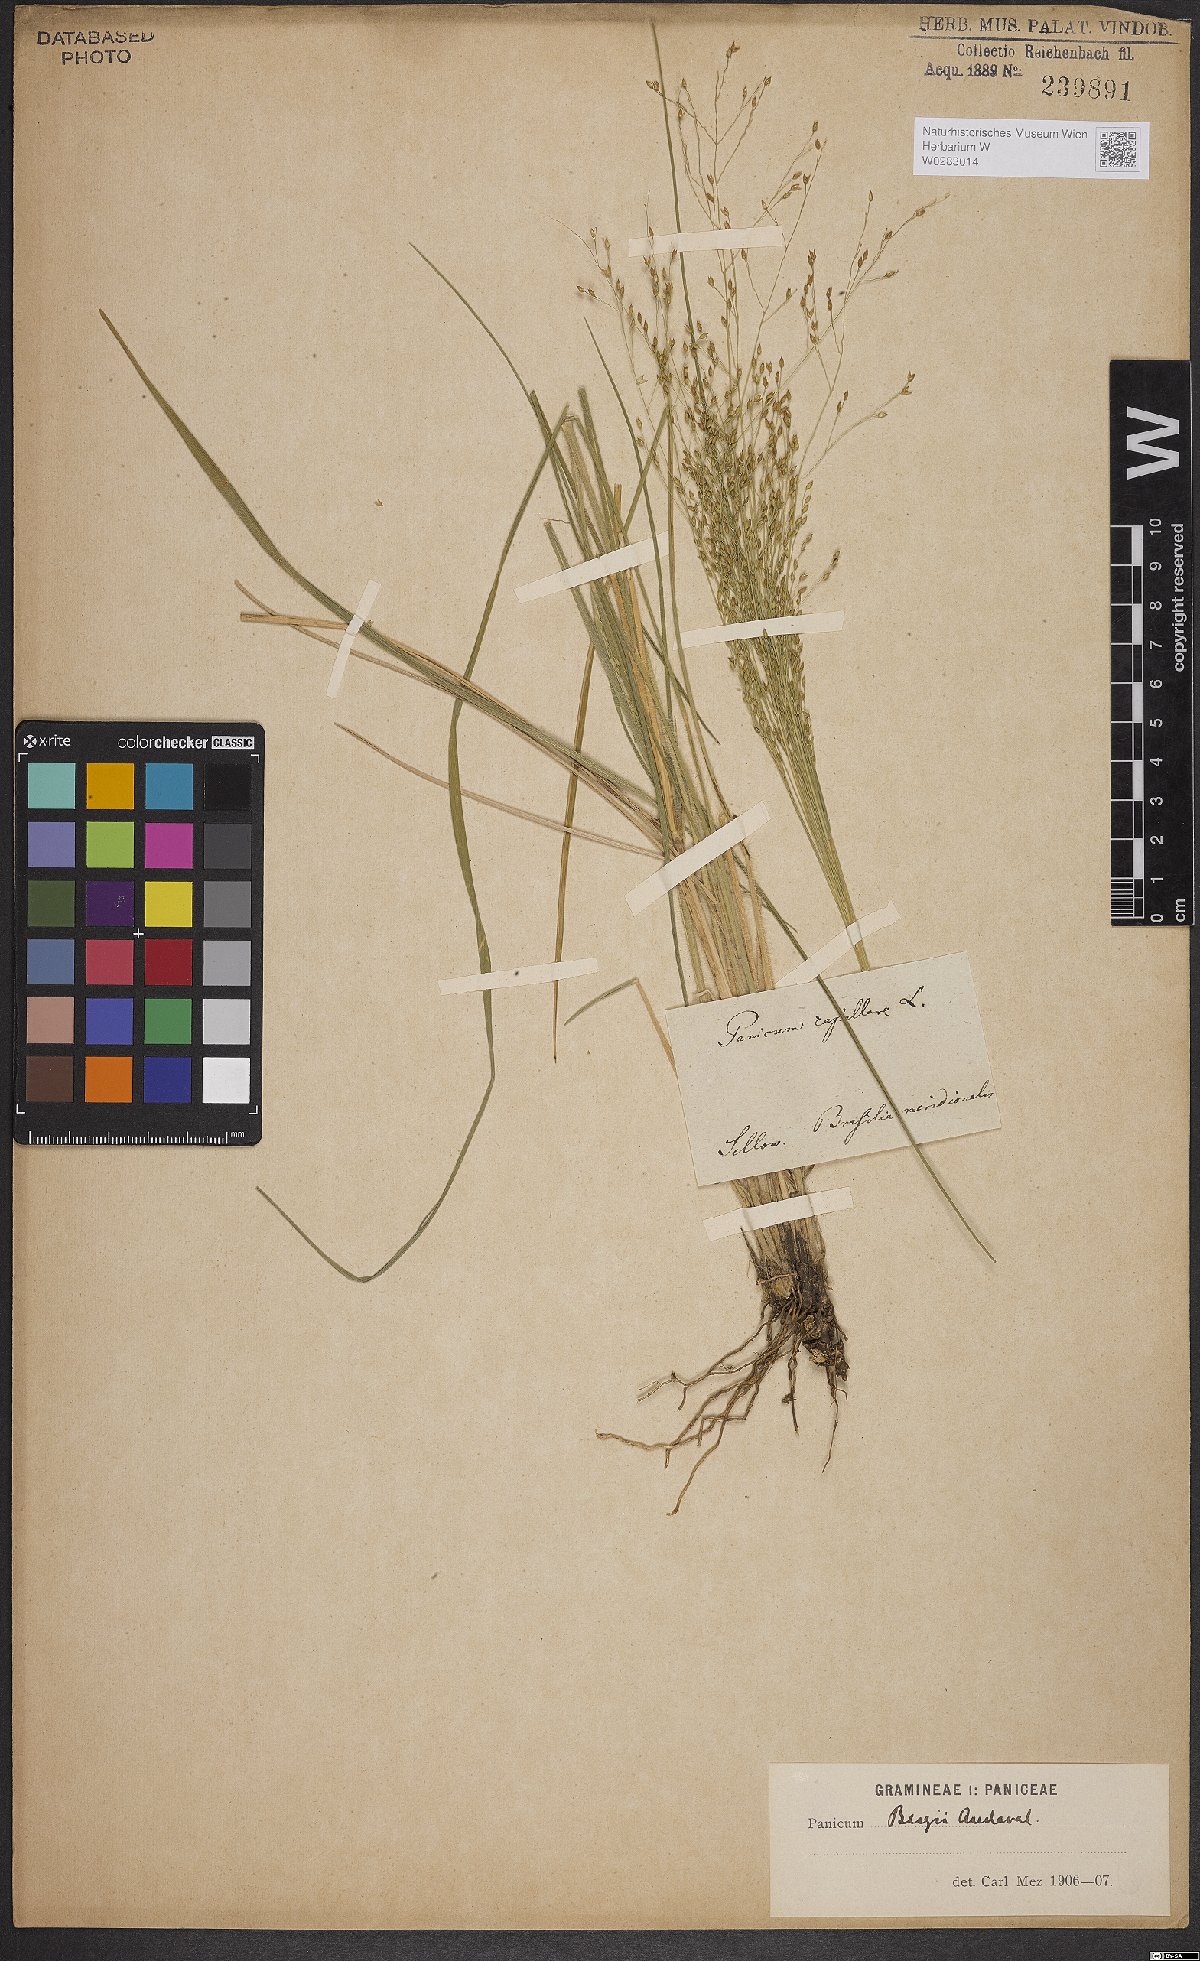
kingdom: Plantae
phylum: Tracheophyta
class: Liliopsida
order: Poales
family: Poaceae
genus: Panicum
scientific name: Panicum bergii
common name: Berg's panicgrass
